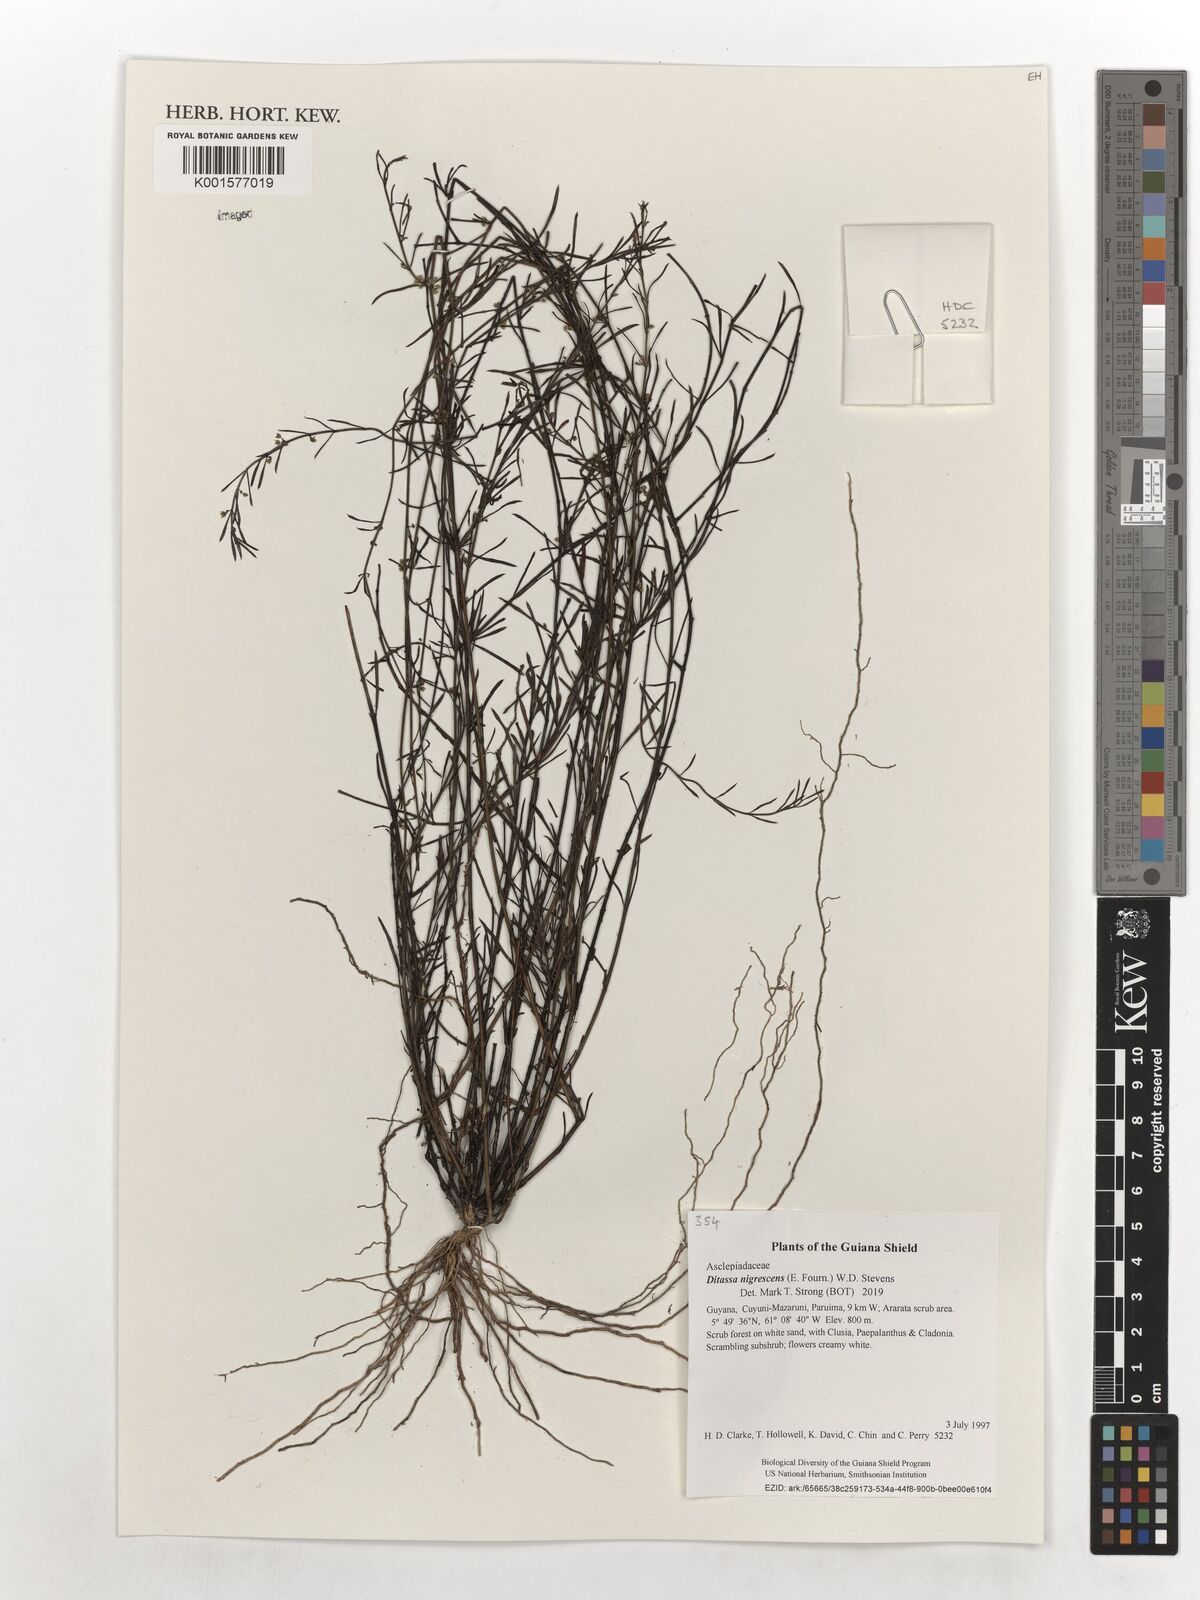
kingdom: Plantae
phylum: Tracheophyta
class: Magnoliopsida
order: Gentianales
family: Apocynaceae
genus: Ditassa
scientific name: Ditassa nigrescens
